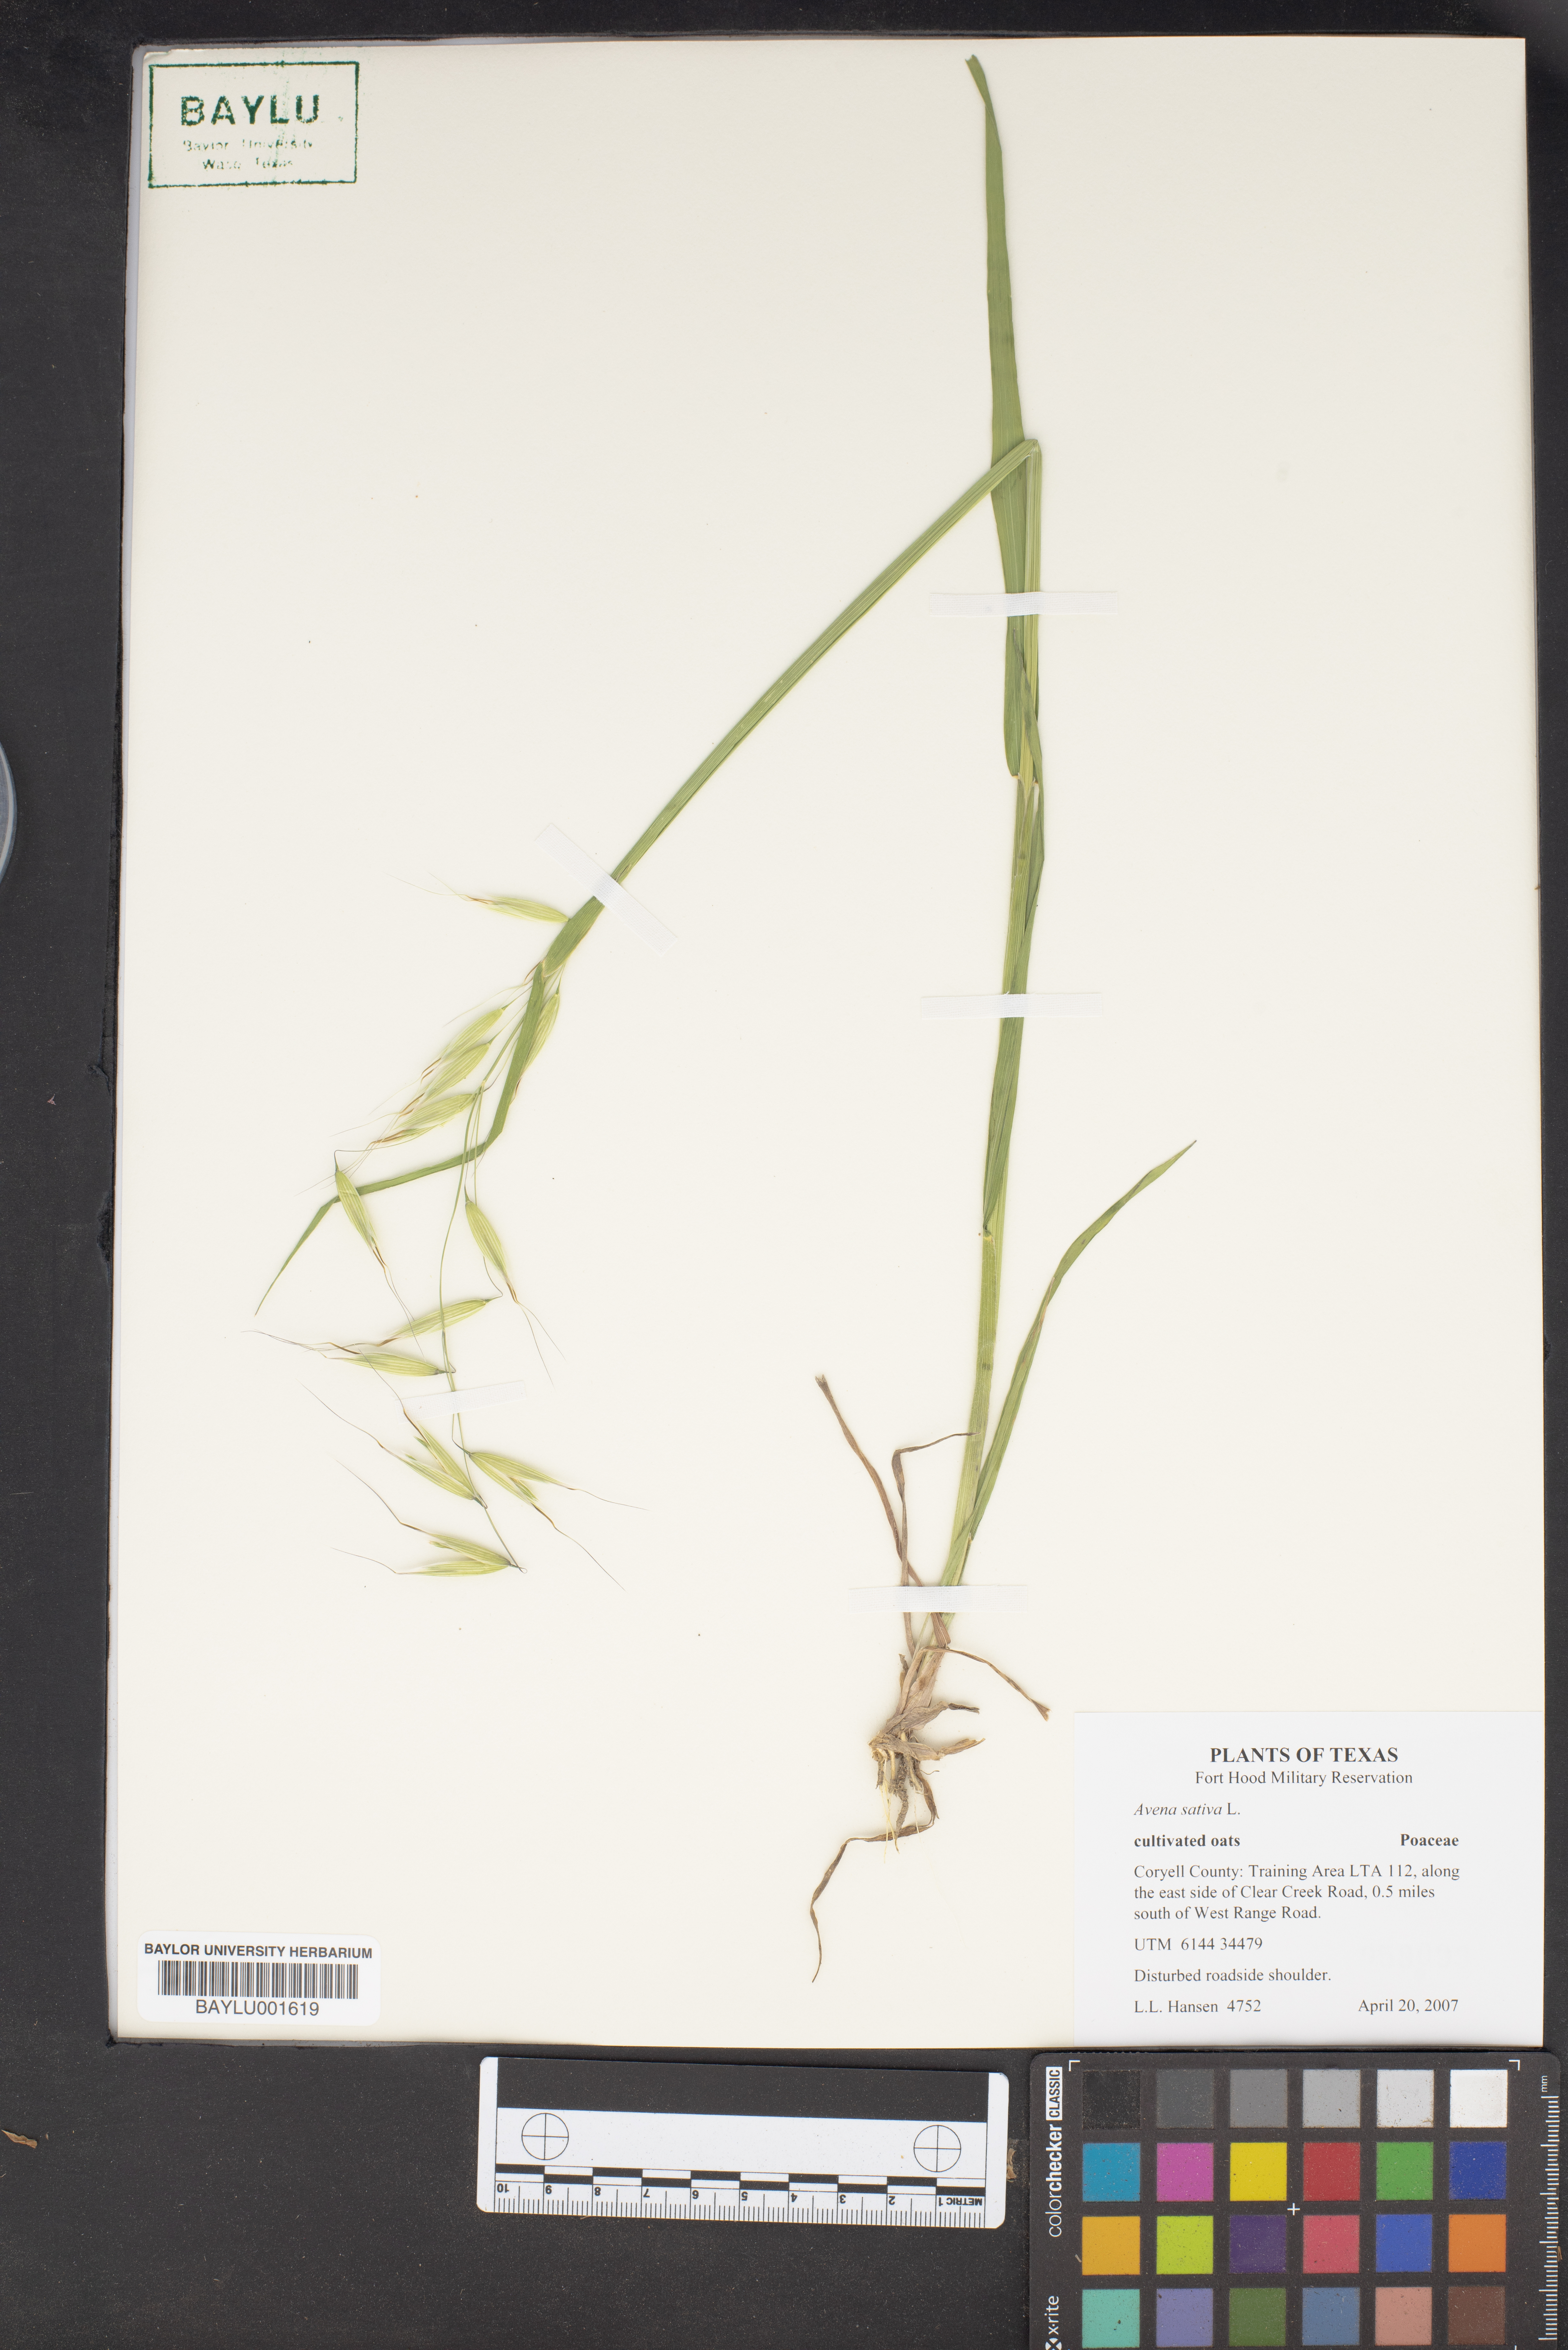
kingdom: Plantae
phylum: Tracheophyta
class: Liliopsida
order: Poales
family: Poaceae
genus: Avena
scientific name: Avena sativa
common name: Oat
